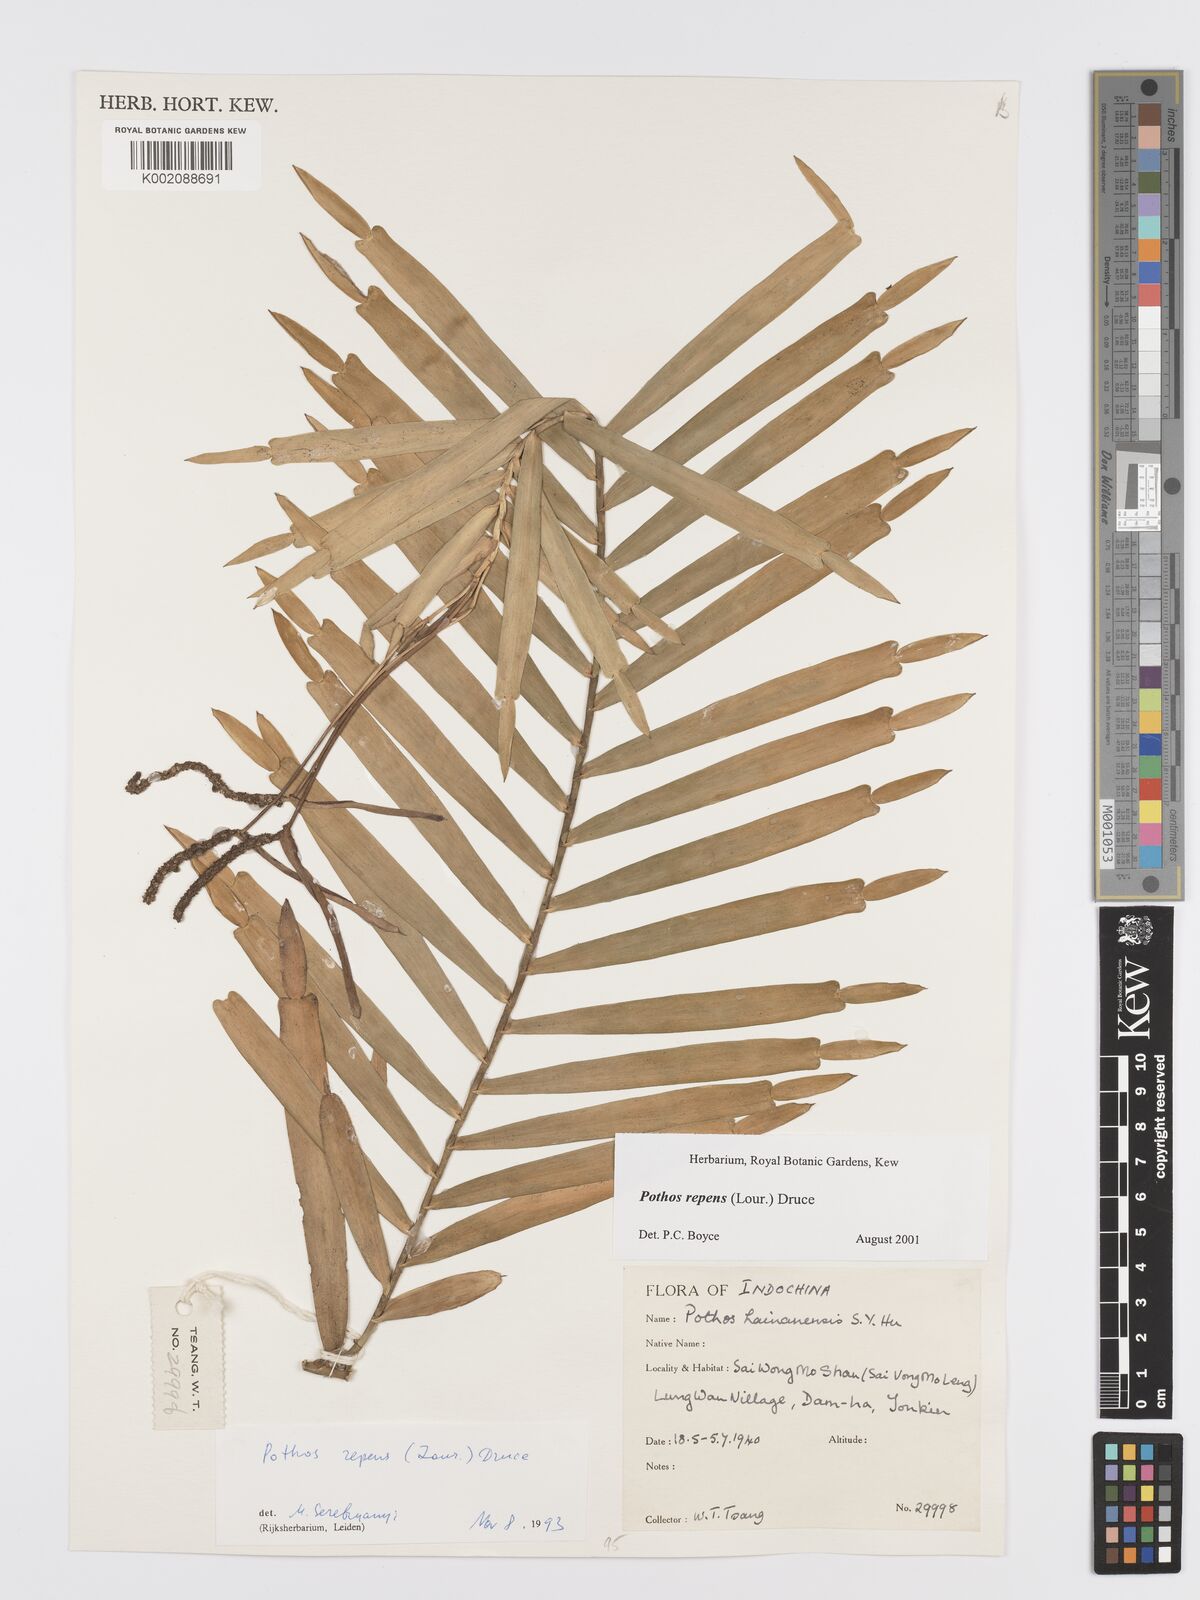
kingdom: Plantae
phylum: Tracheophyta
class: Liliopsida
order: Alismatales
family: Araceae
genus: Pothos
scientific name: Pothos repens
